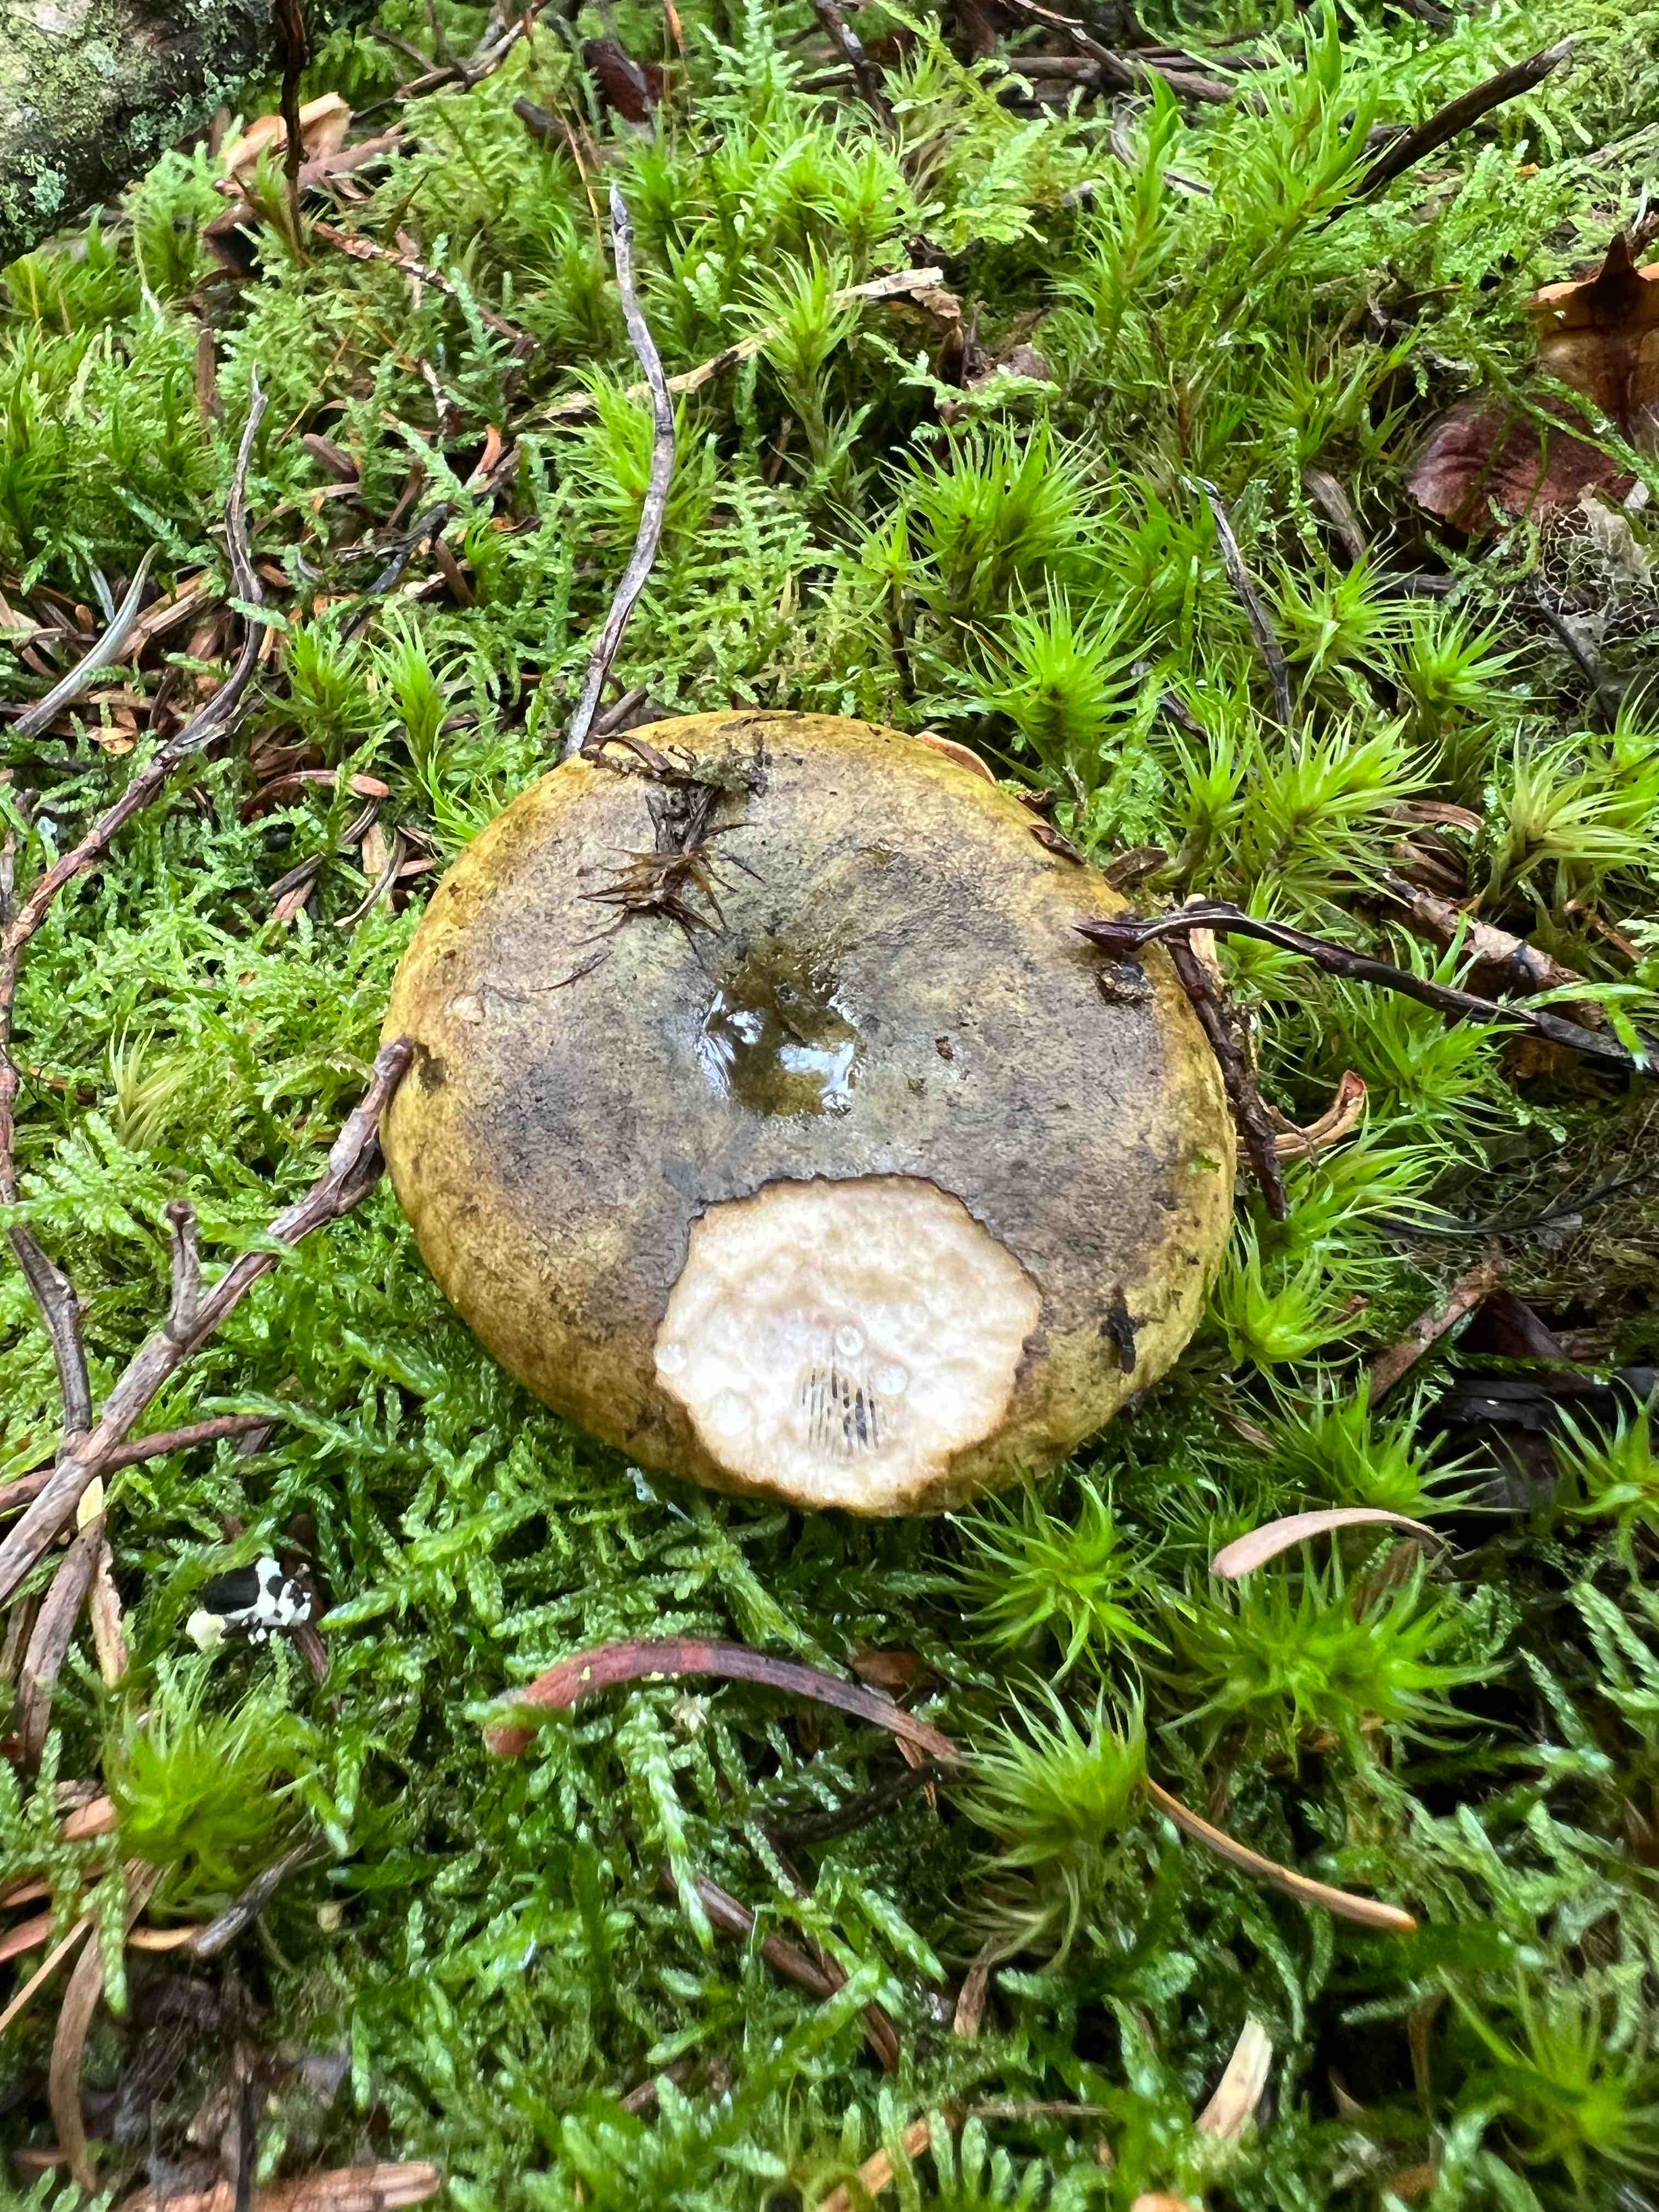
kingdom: Fungi
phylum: Basidiomycota
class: Agaricomycetes
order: Russulales
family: Russulaceae
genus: Lactarius
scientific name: Lactarius necator
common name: manddraber-mælkehat
